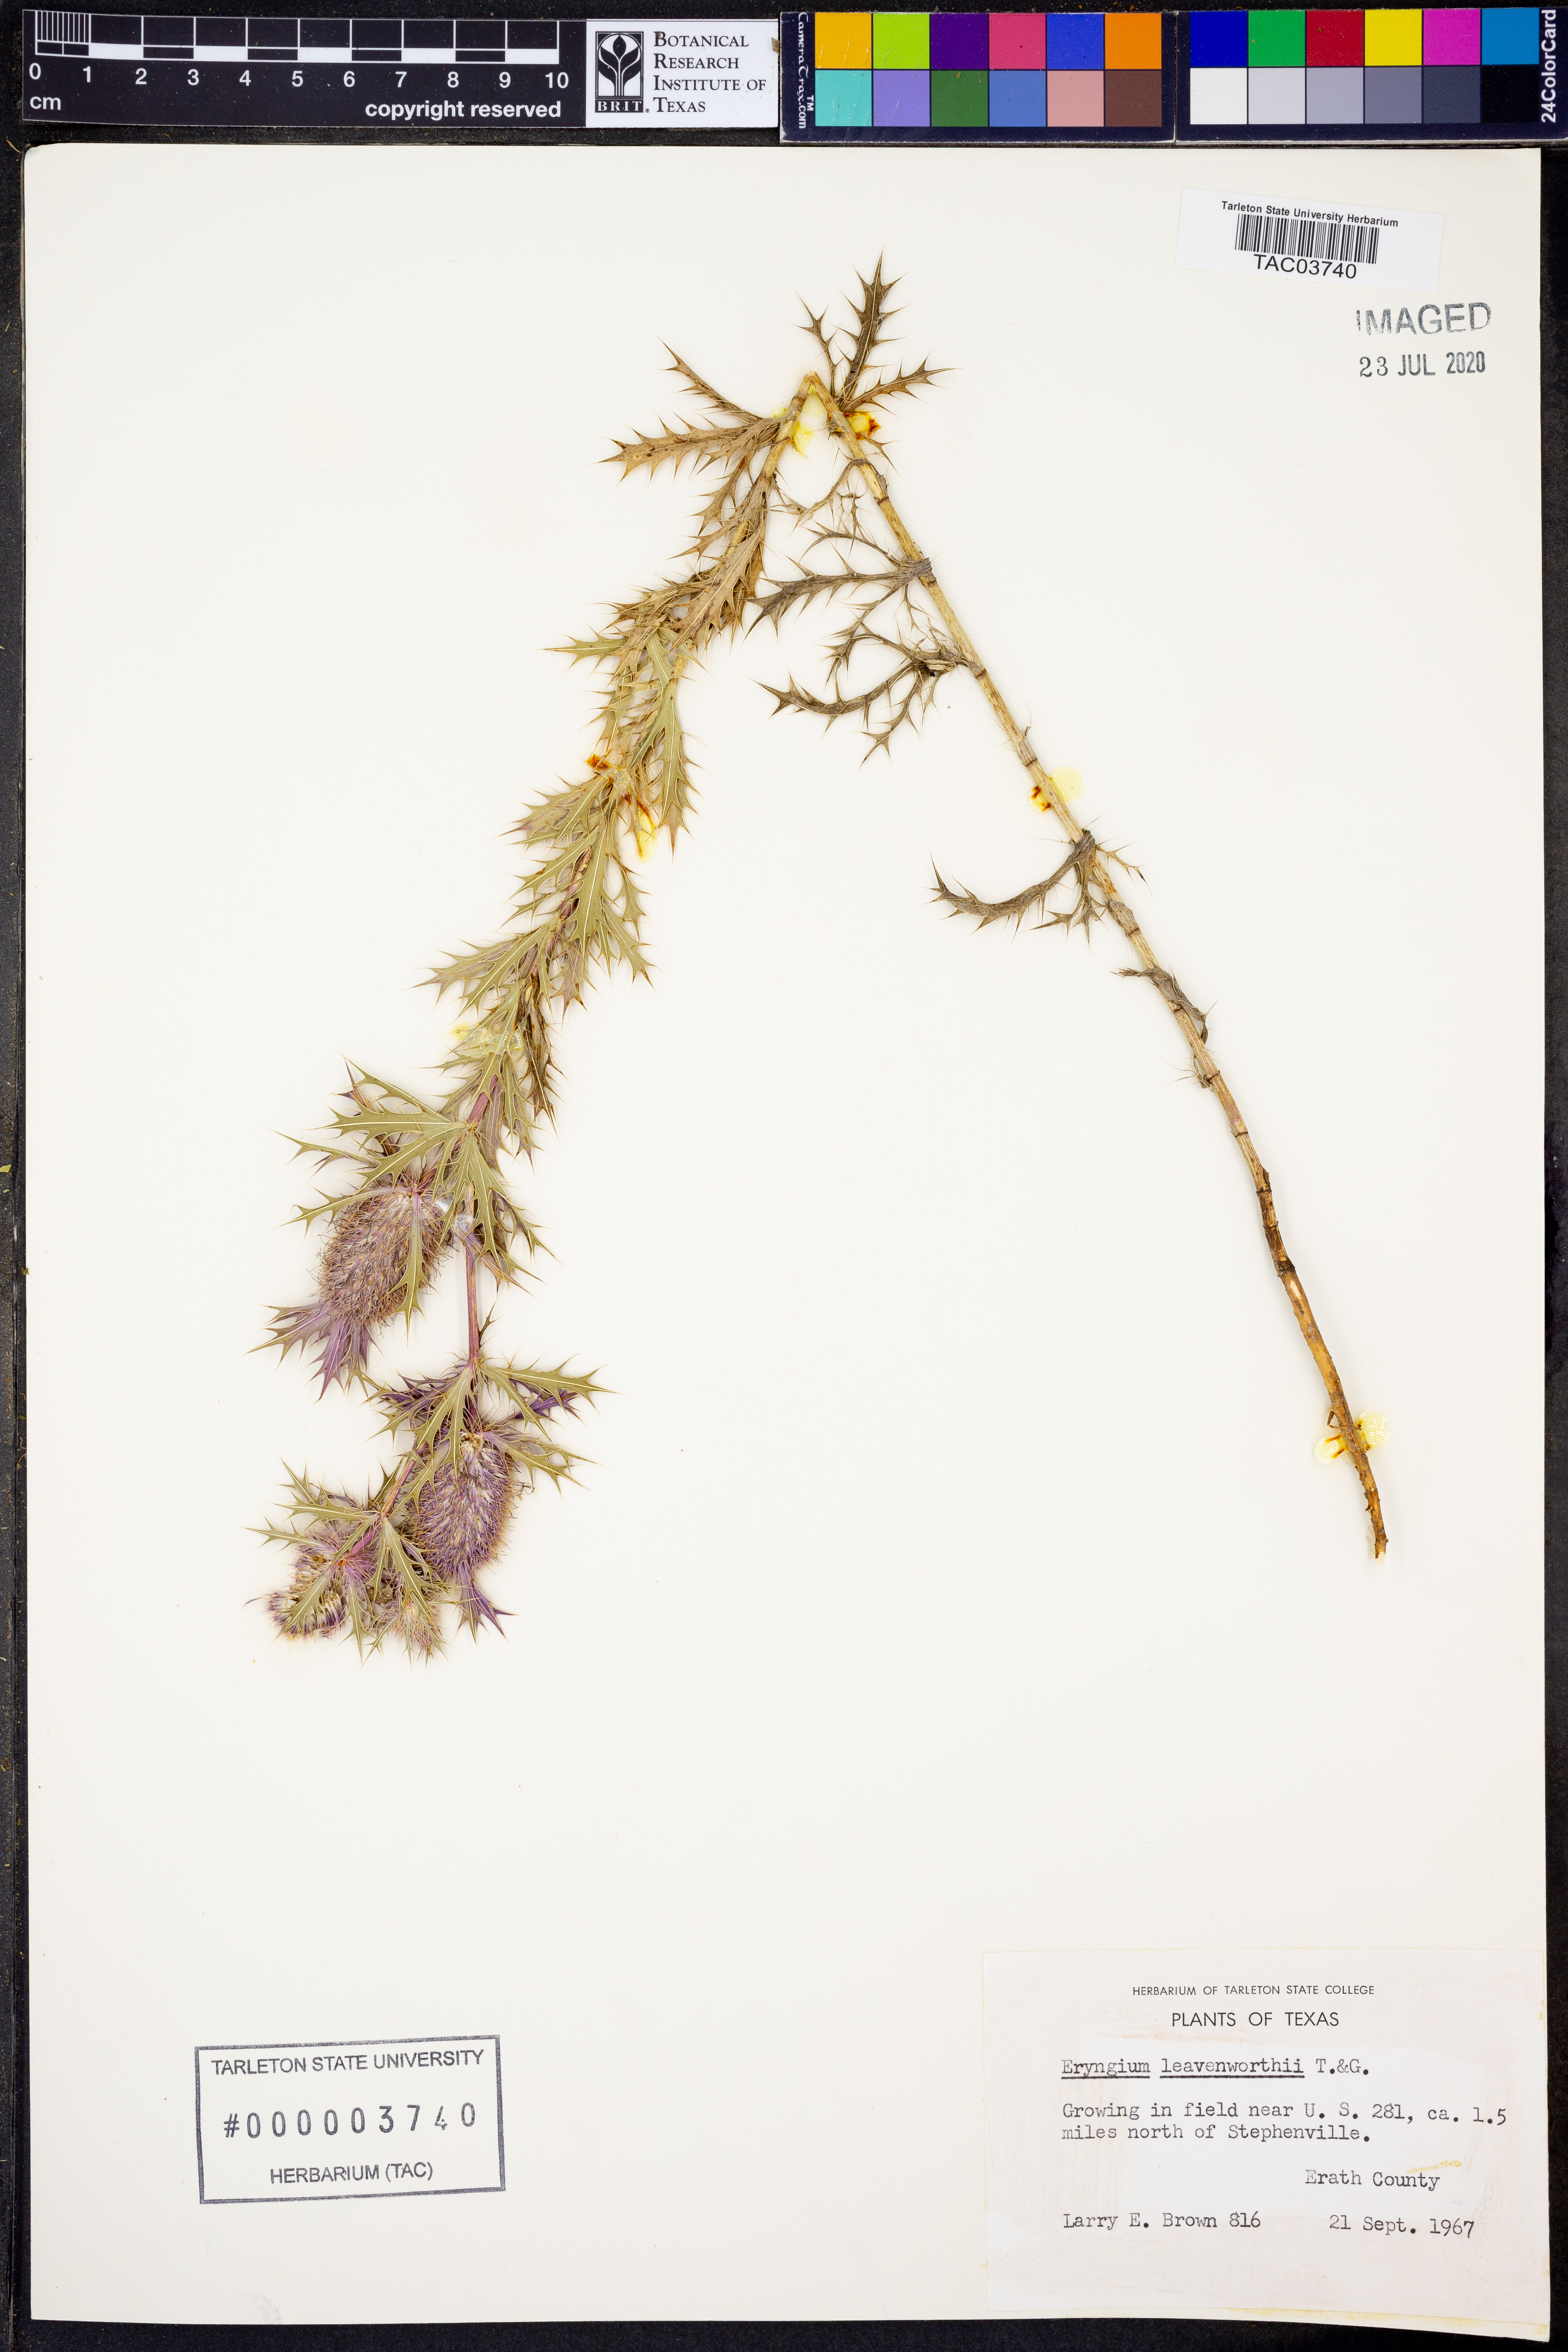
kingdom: Plantae
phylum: Tracheophyta
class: Magnoliopsida
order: Apiales
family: Apiaceae
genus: Eryngium
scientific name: Eryngium leavenworthii
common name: Leavenworth's eryngo
